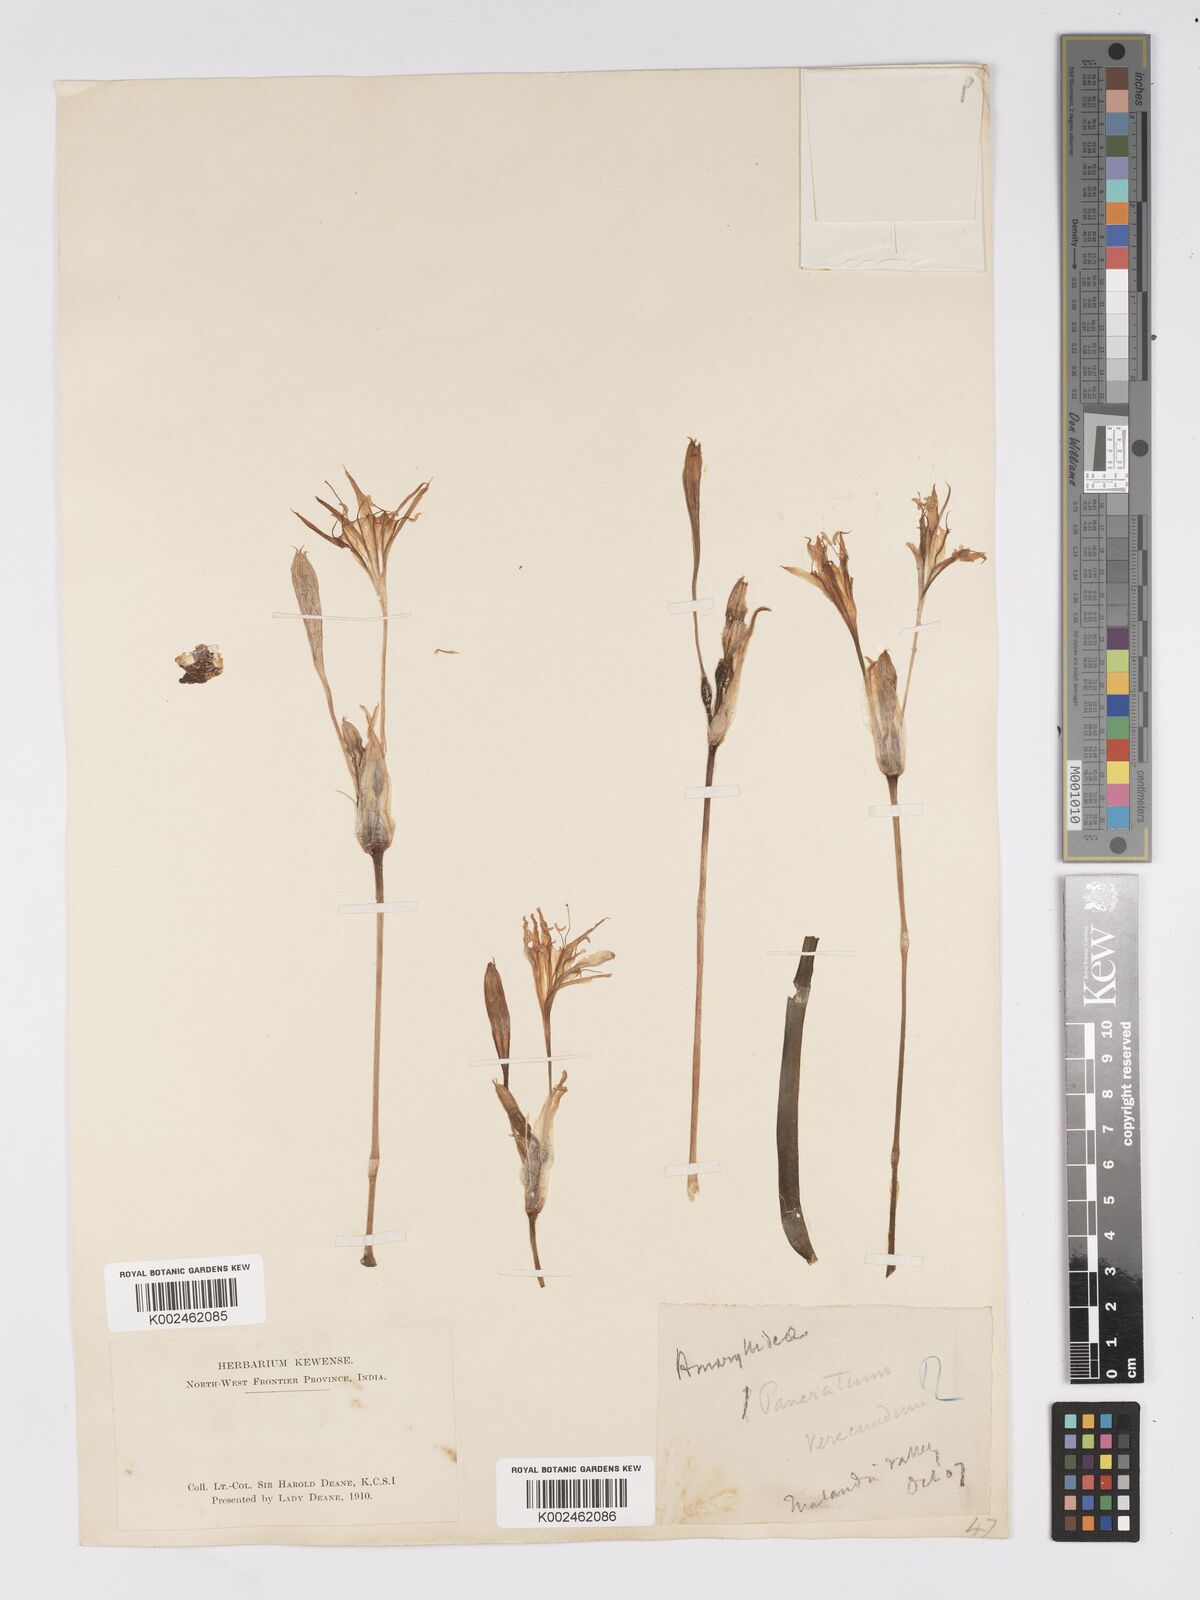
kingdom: Plantae
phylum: Tracheophyta
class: Liliopsida
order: Asparagales
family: Amaryllidaceae
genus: Pancratium
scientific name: Pancratium triflorum
